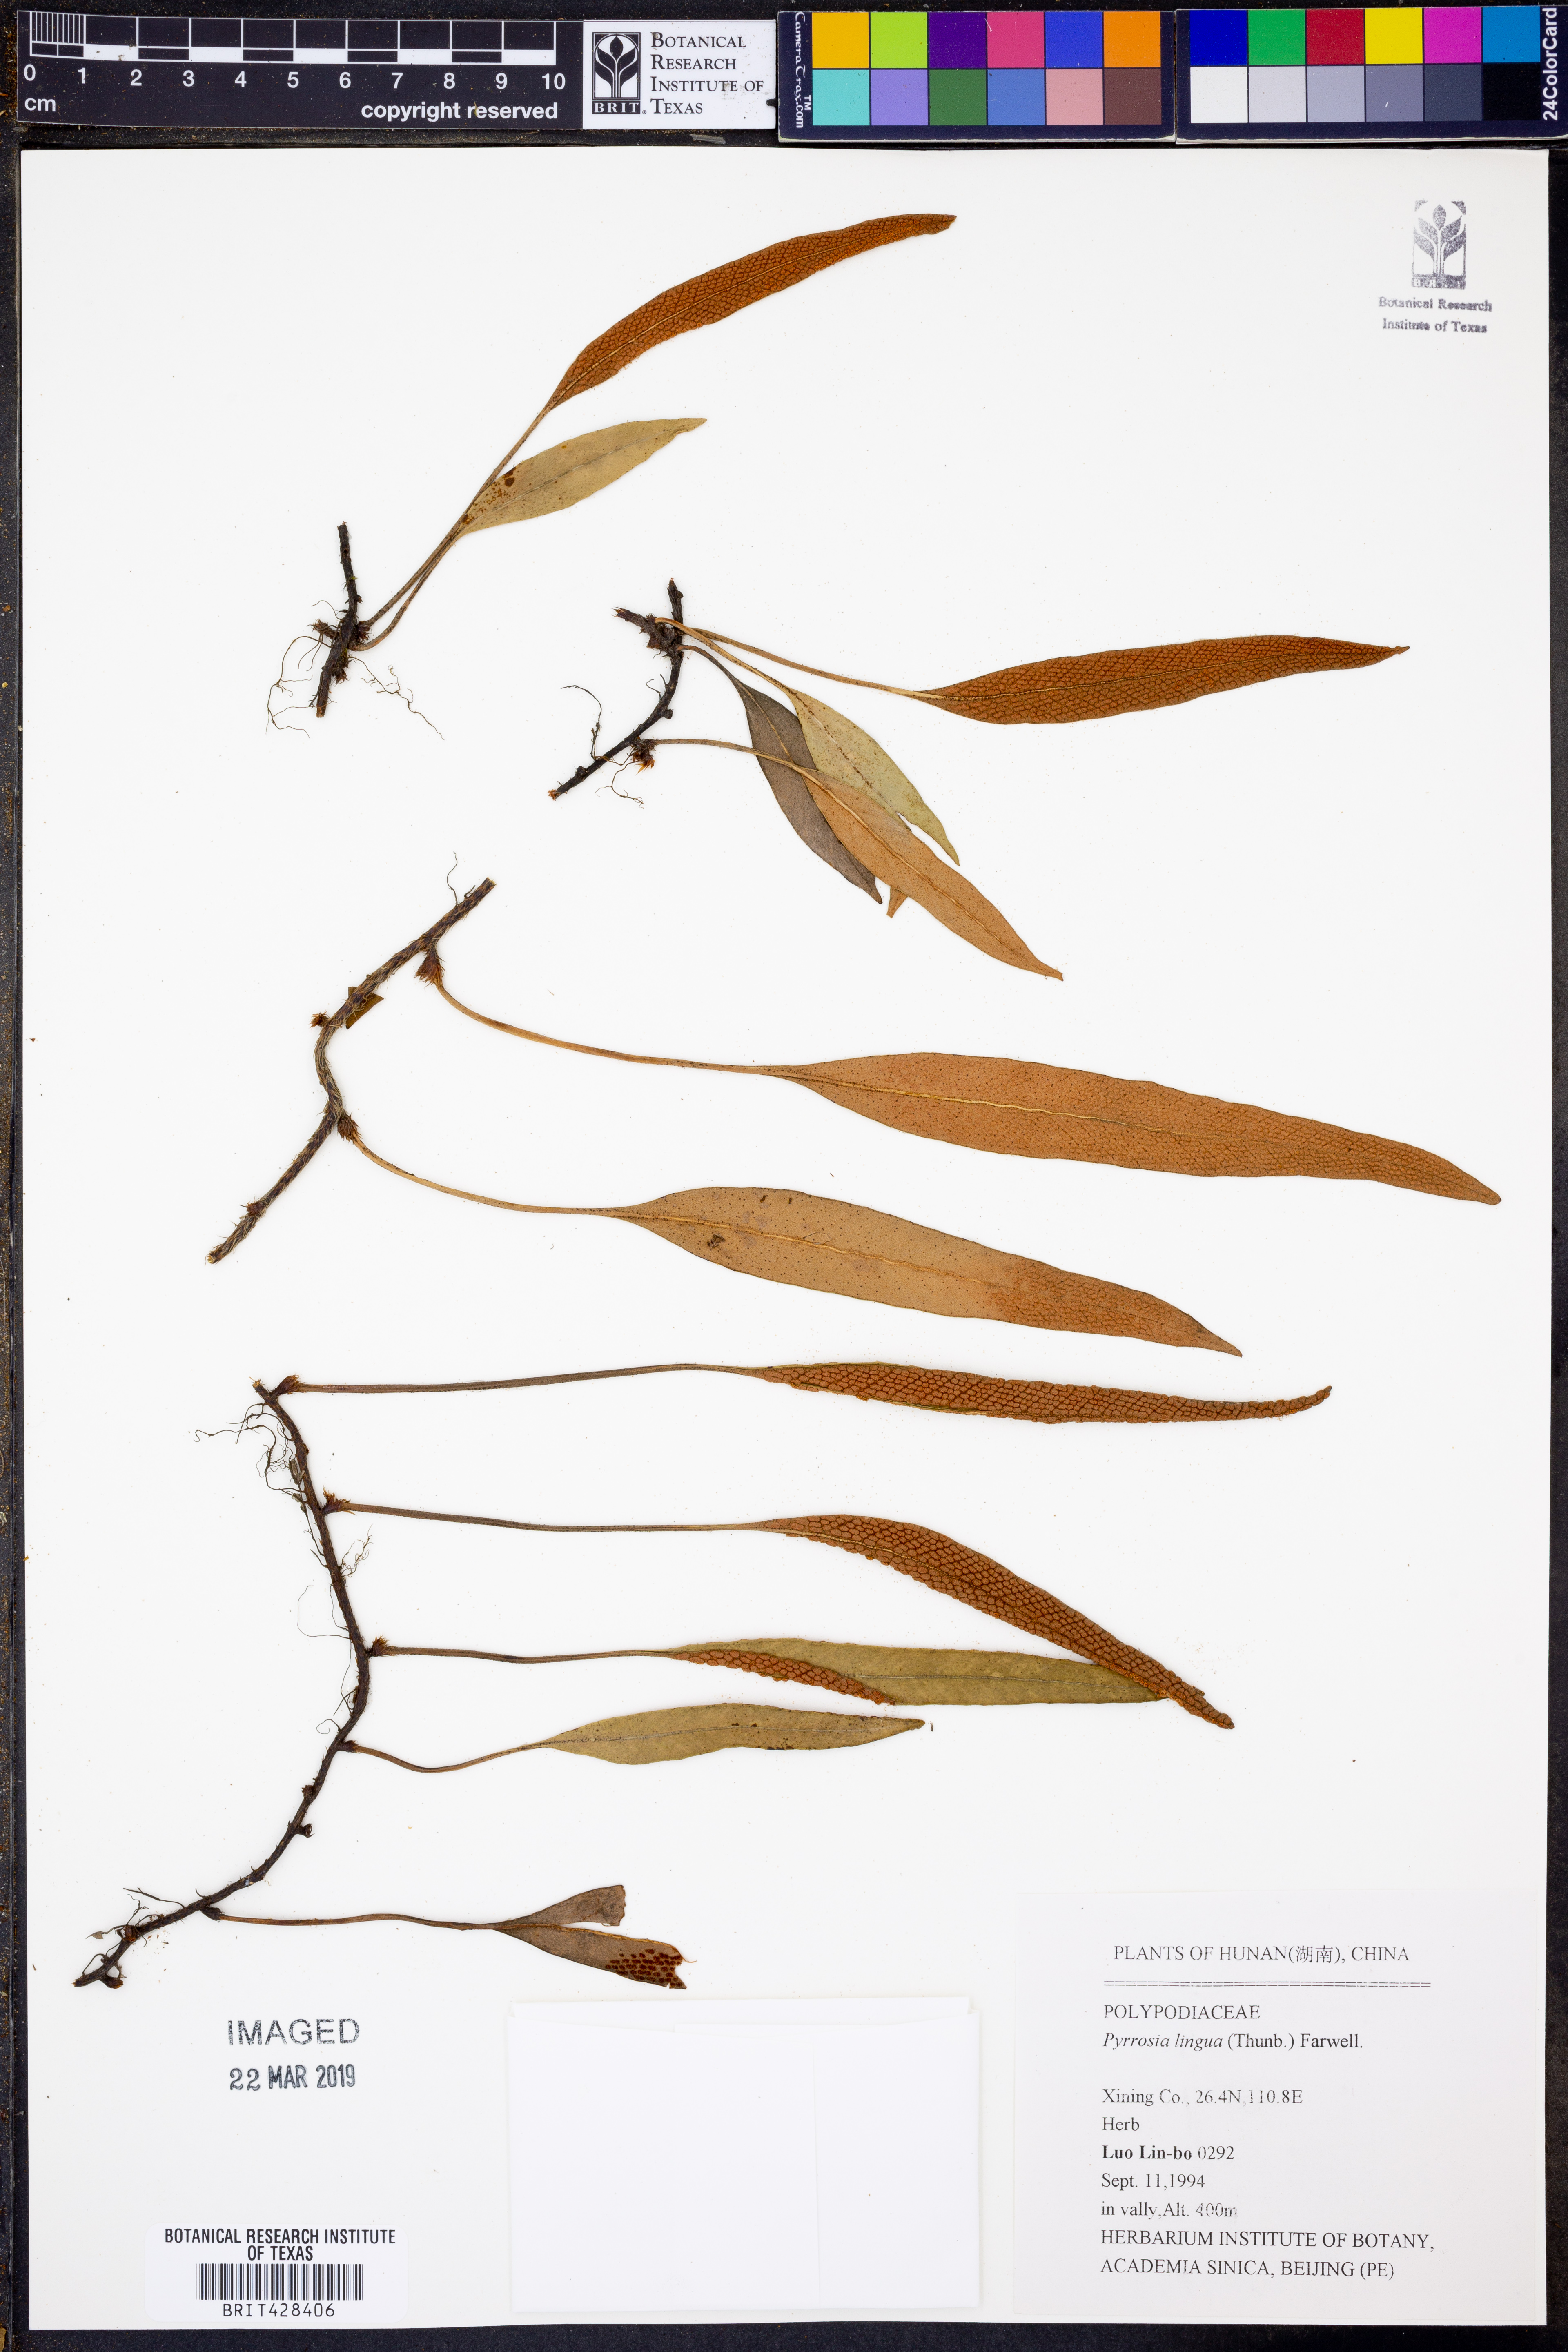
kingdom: Plantae
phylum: Tracheophyta
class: Polypodiopsida
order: Polypodiales
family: Polypodiaceae
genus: Pyrrosia
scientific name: Pyrrosia lingua
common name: Felt fern
